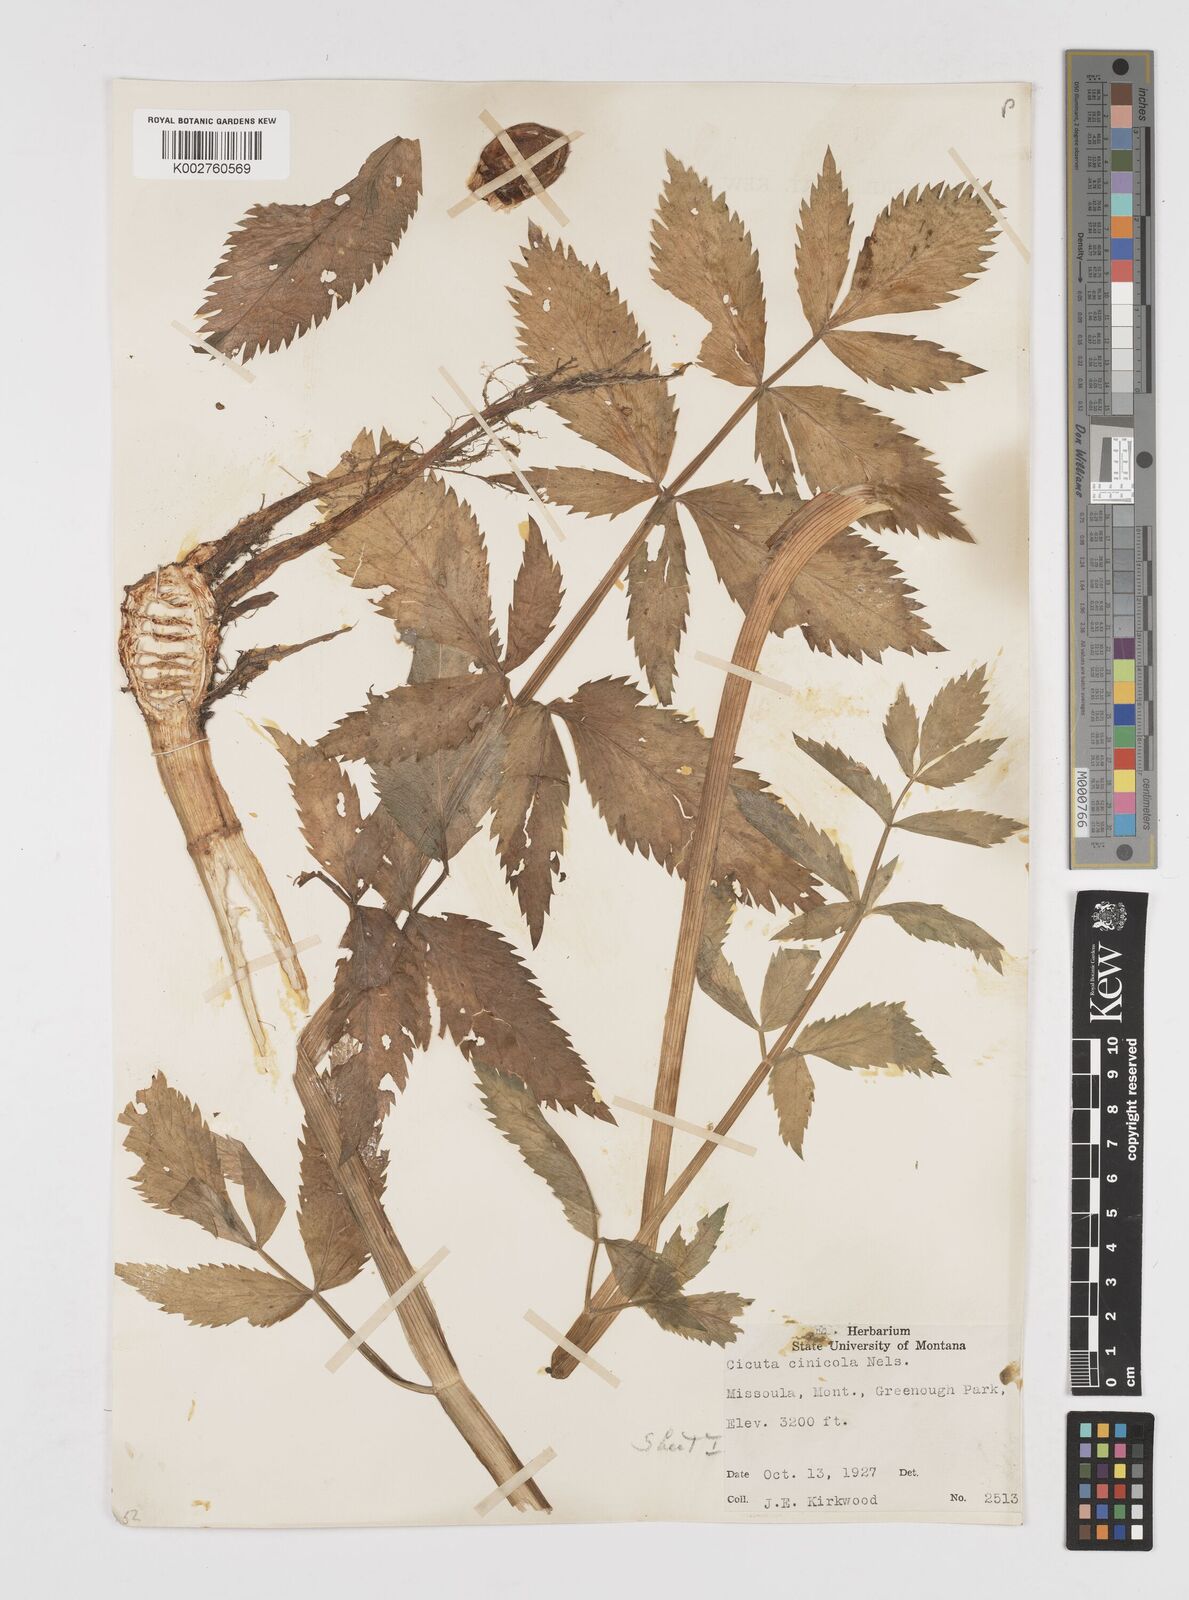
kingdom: Plantae
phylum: Tracheophyta
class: Magnoliopsida
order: Apiales
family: Apiaceae
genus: Cicuta
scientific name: Cicuta douglasii
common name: Western water-hemlock
